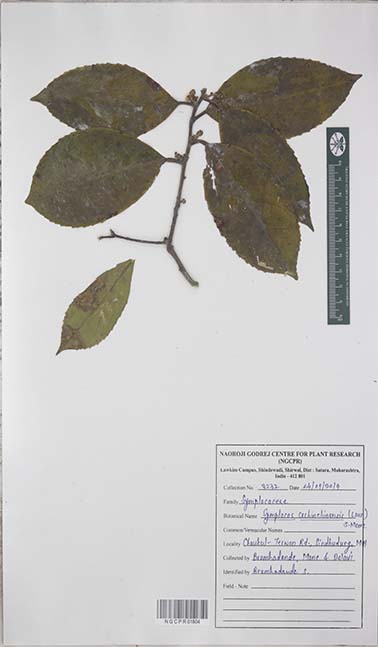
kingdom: Plantae
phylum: Tracheophyta
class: Magnoliopsida
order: Ericales
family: Symplocaceae
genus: Symplocos
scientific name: Symplocos cochinchinensis
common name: Buff hazelwood
